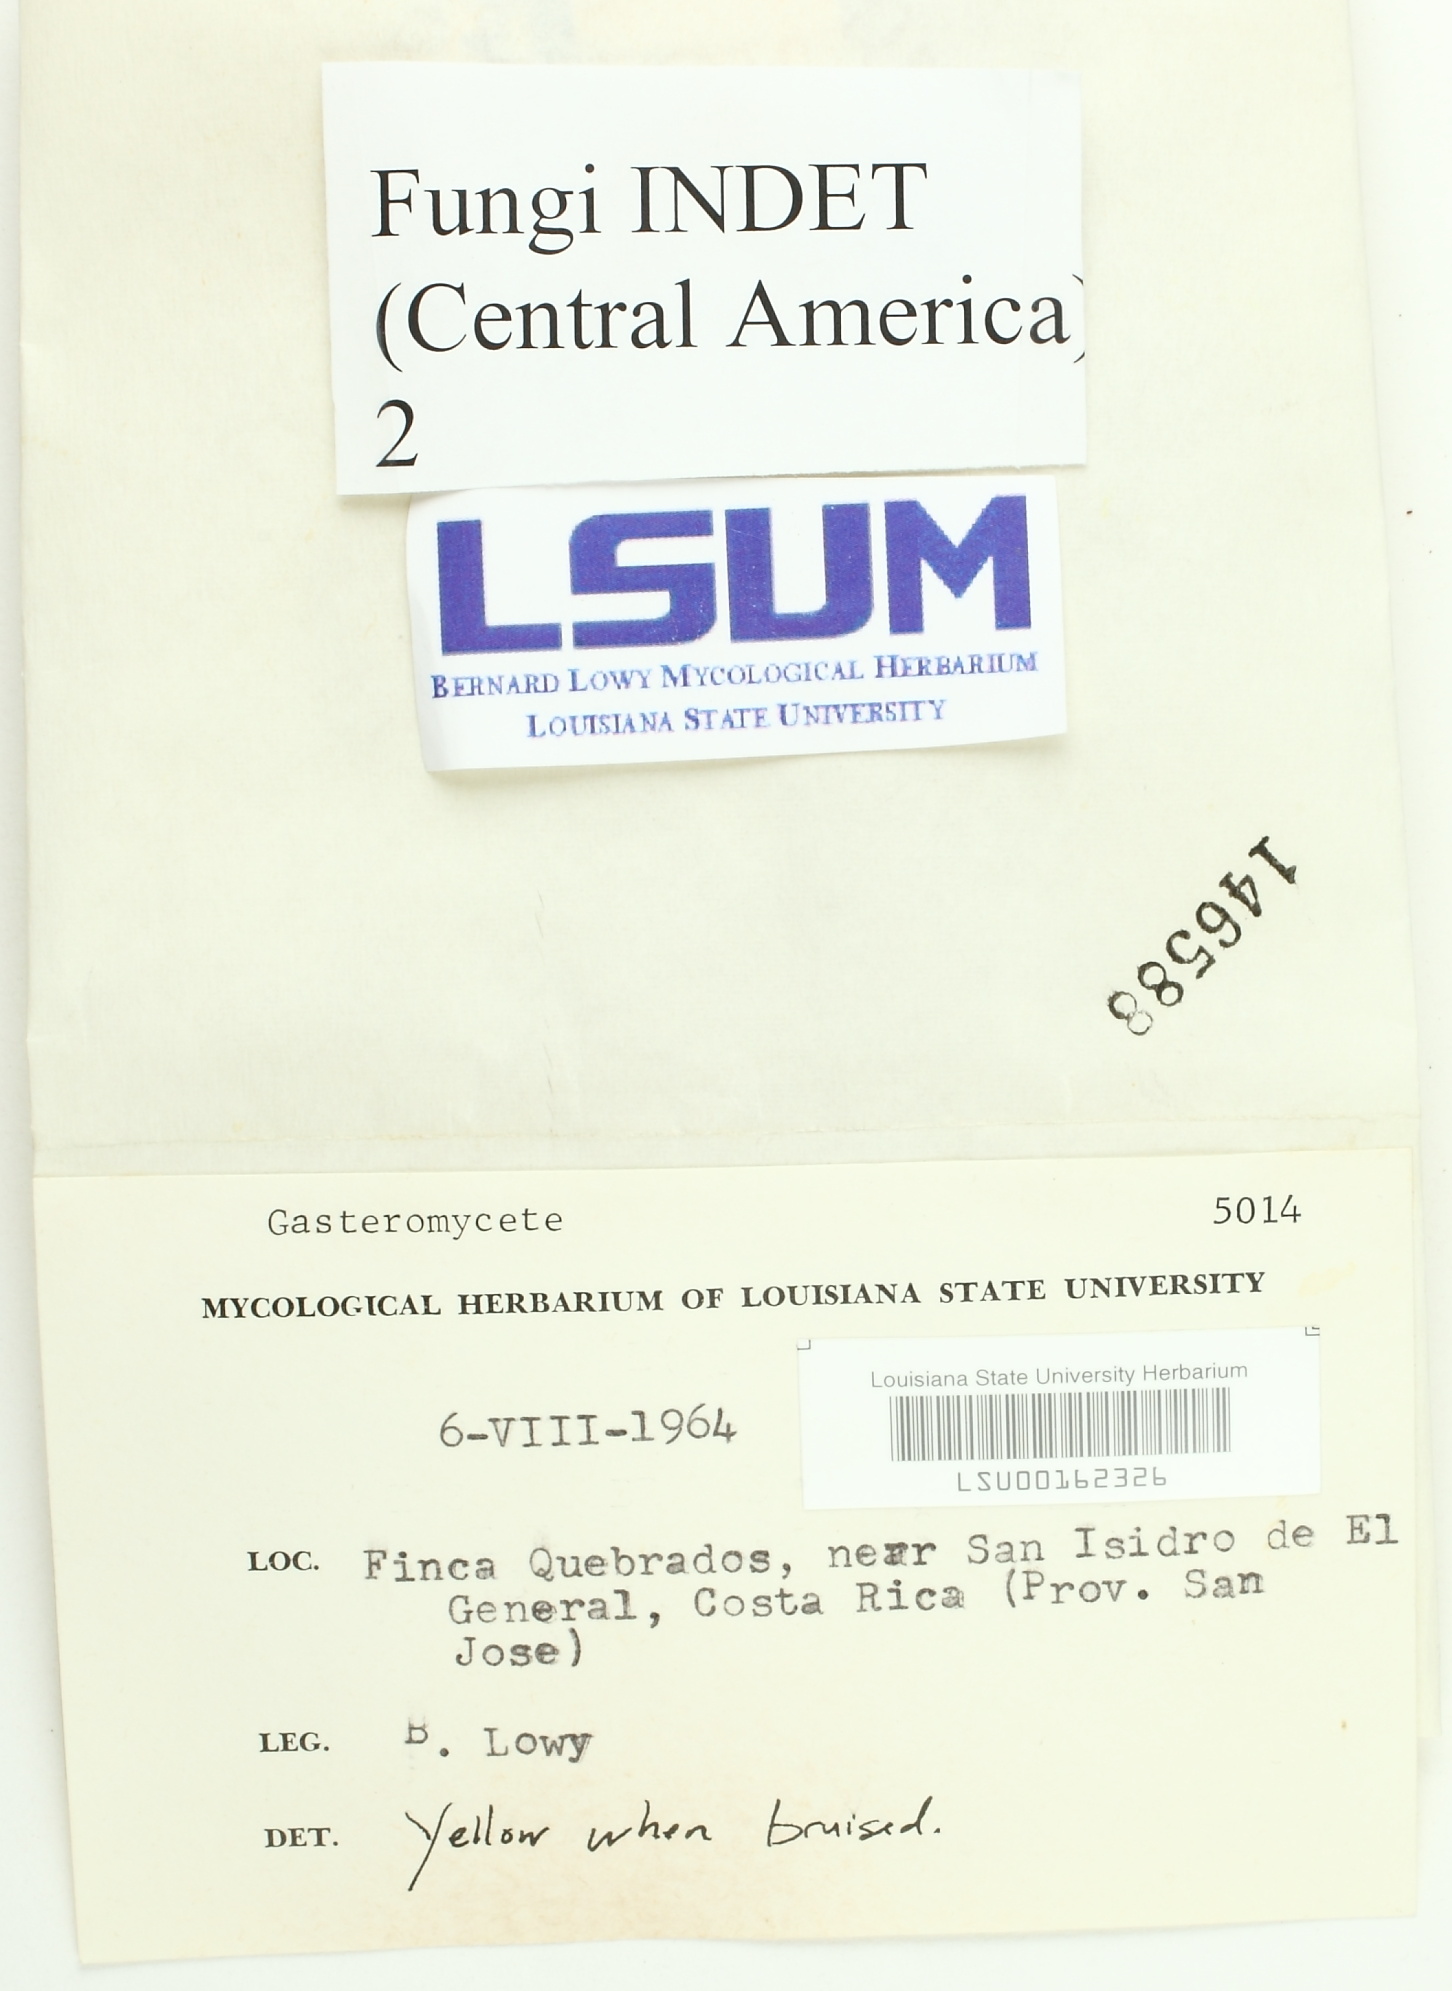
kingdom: Fungi
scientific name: Fungi
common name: Fungi
